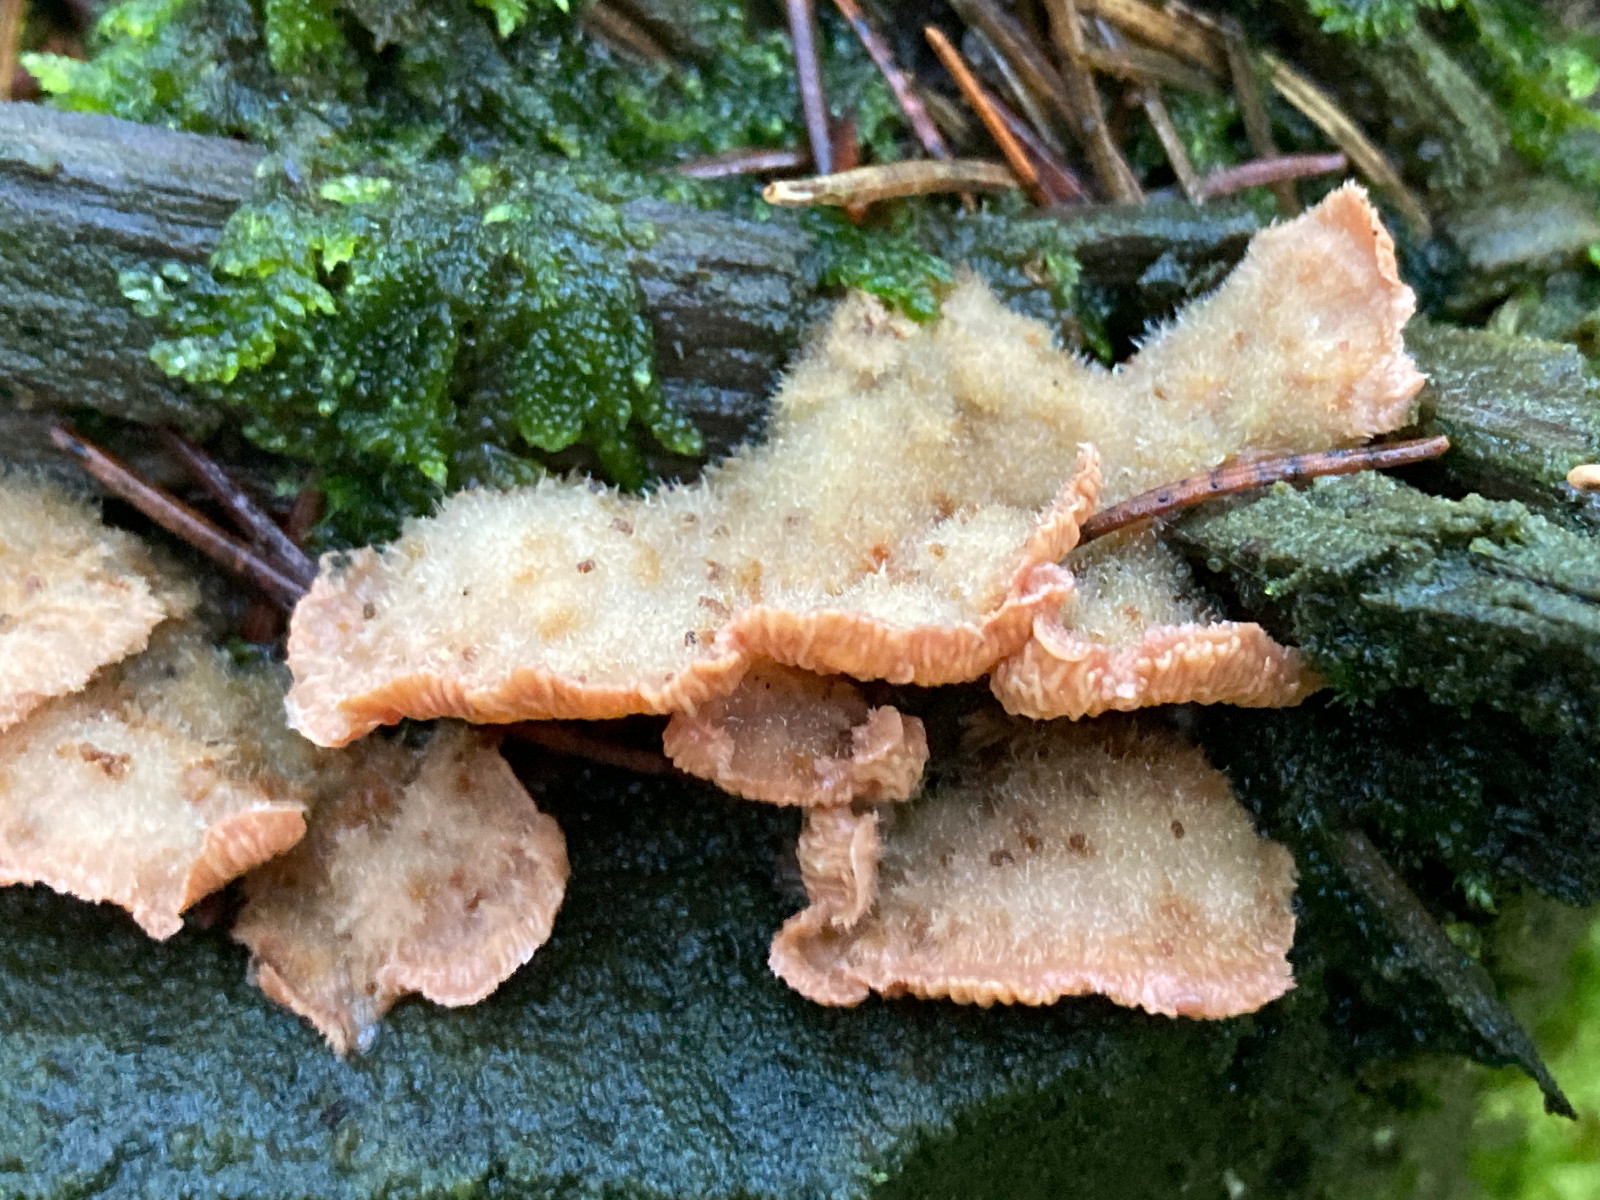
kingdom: Fungi
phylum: Basidiomycota
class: Agaricomycetes
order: Polyporales
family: Meruliaceae
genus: Phlebia
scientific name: Phlebia tremellosa
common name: bævrende åresvamp
